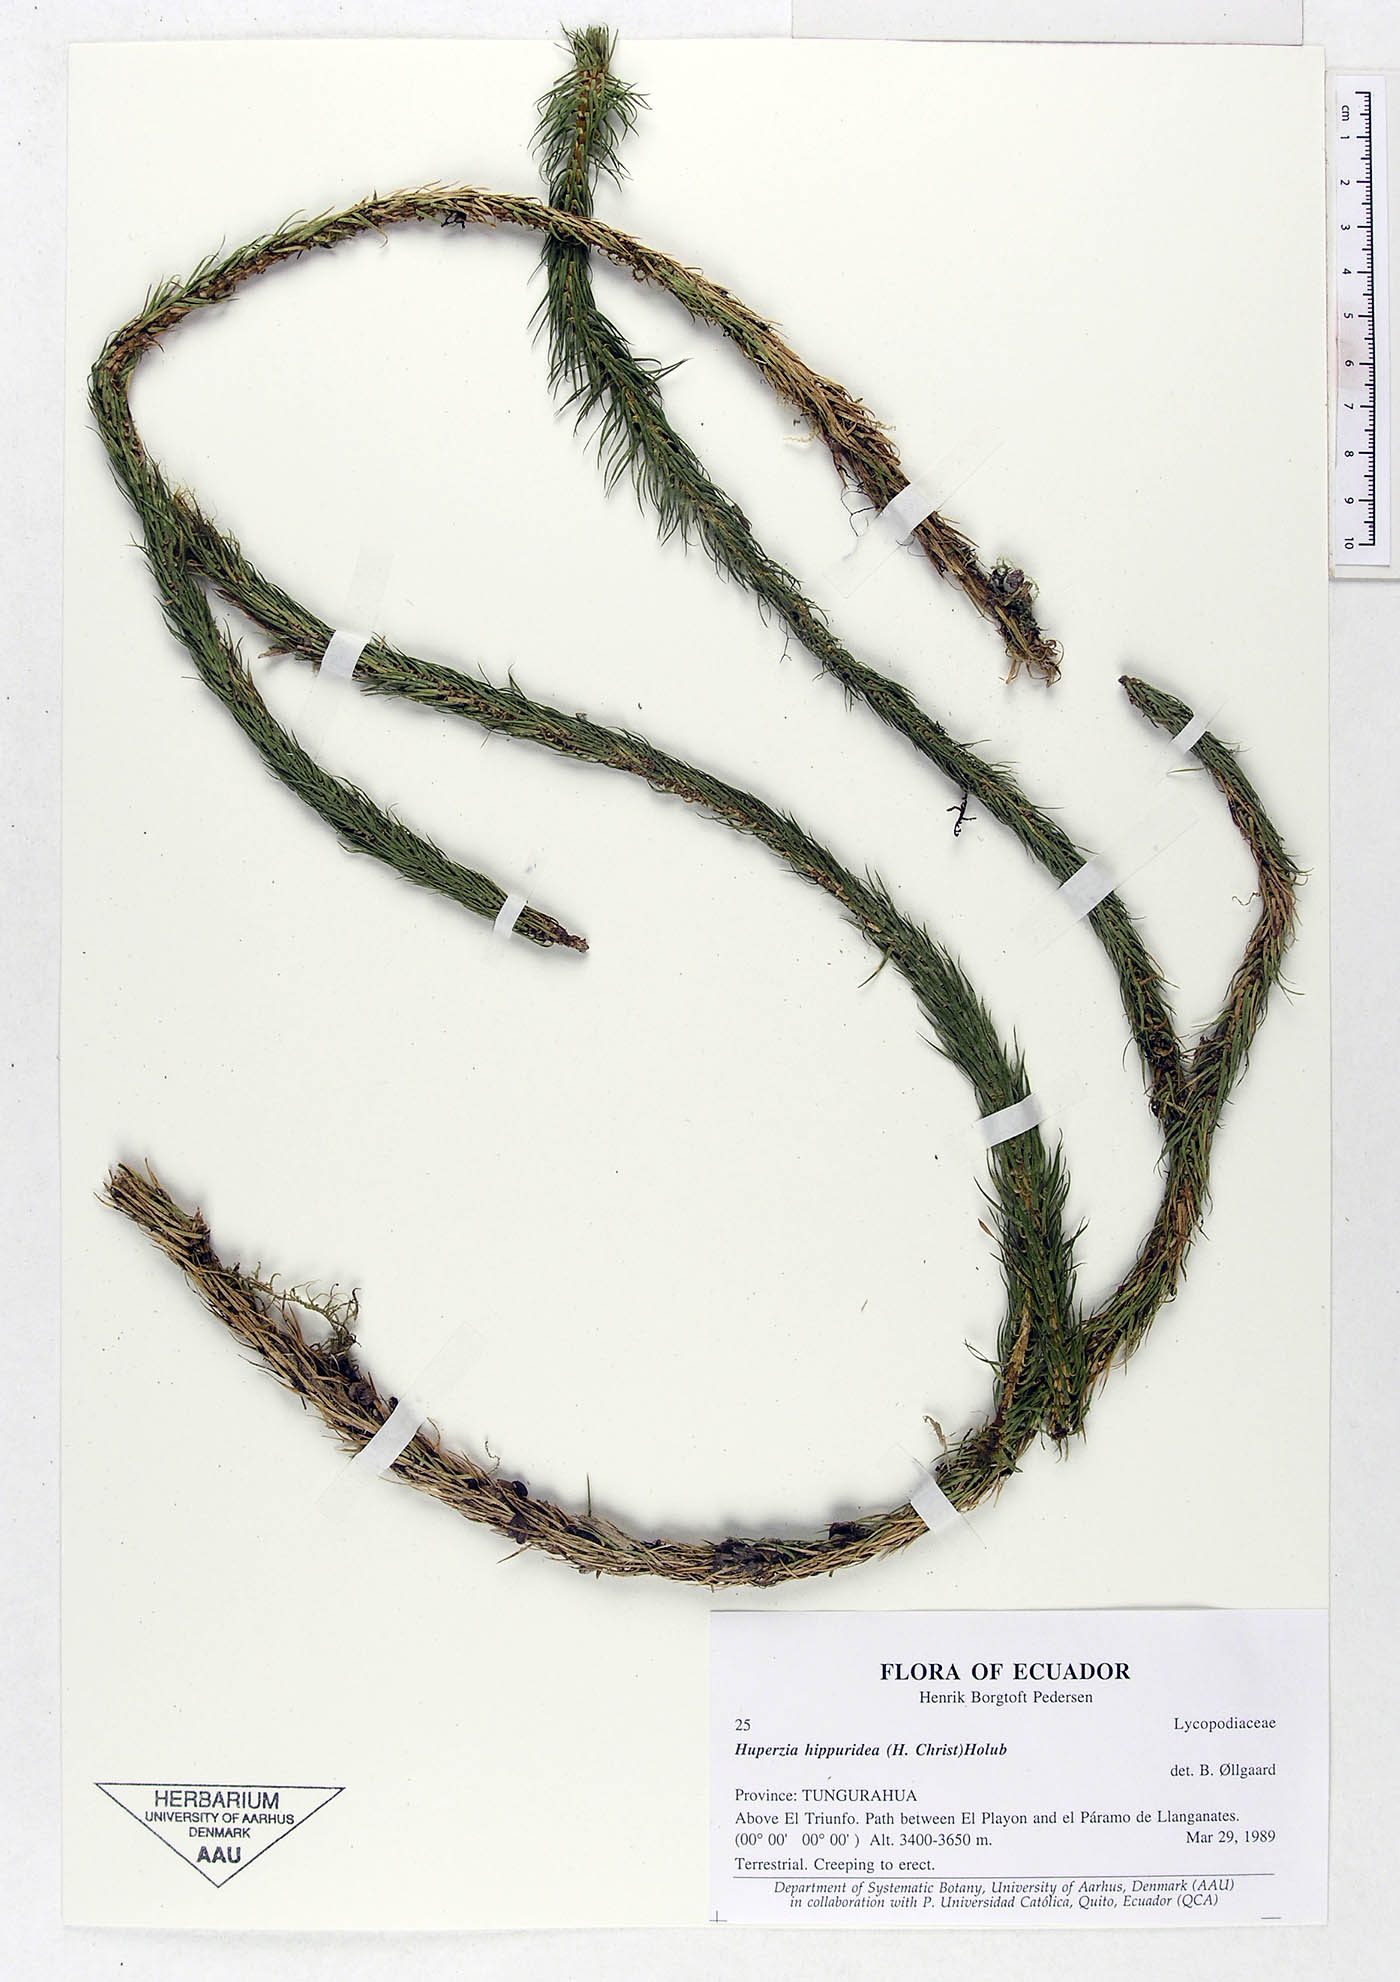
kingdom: Plantae
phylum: Tracheophyta
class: Lycopodiopsida
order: Lycopodiales
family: Lycopodiaceae
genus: Phlegmariurus
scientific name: Phlegmariurus hippurideus
